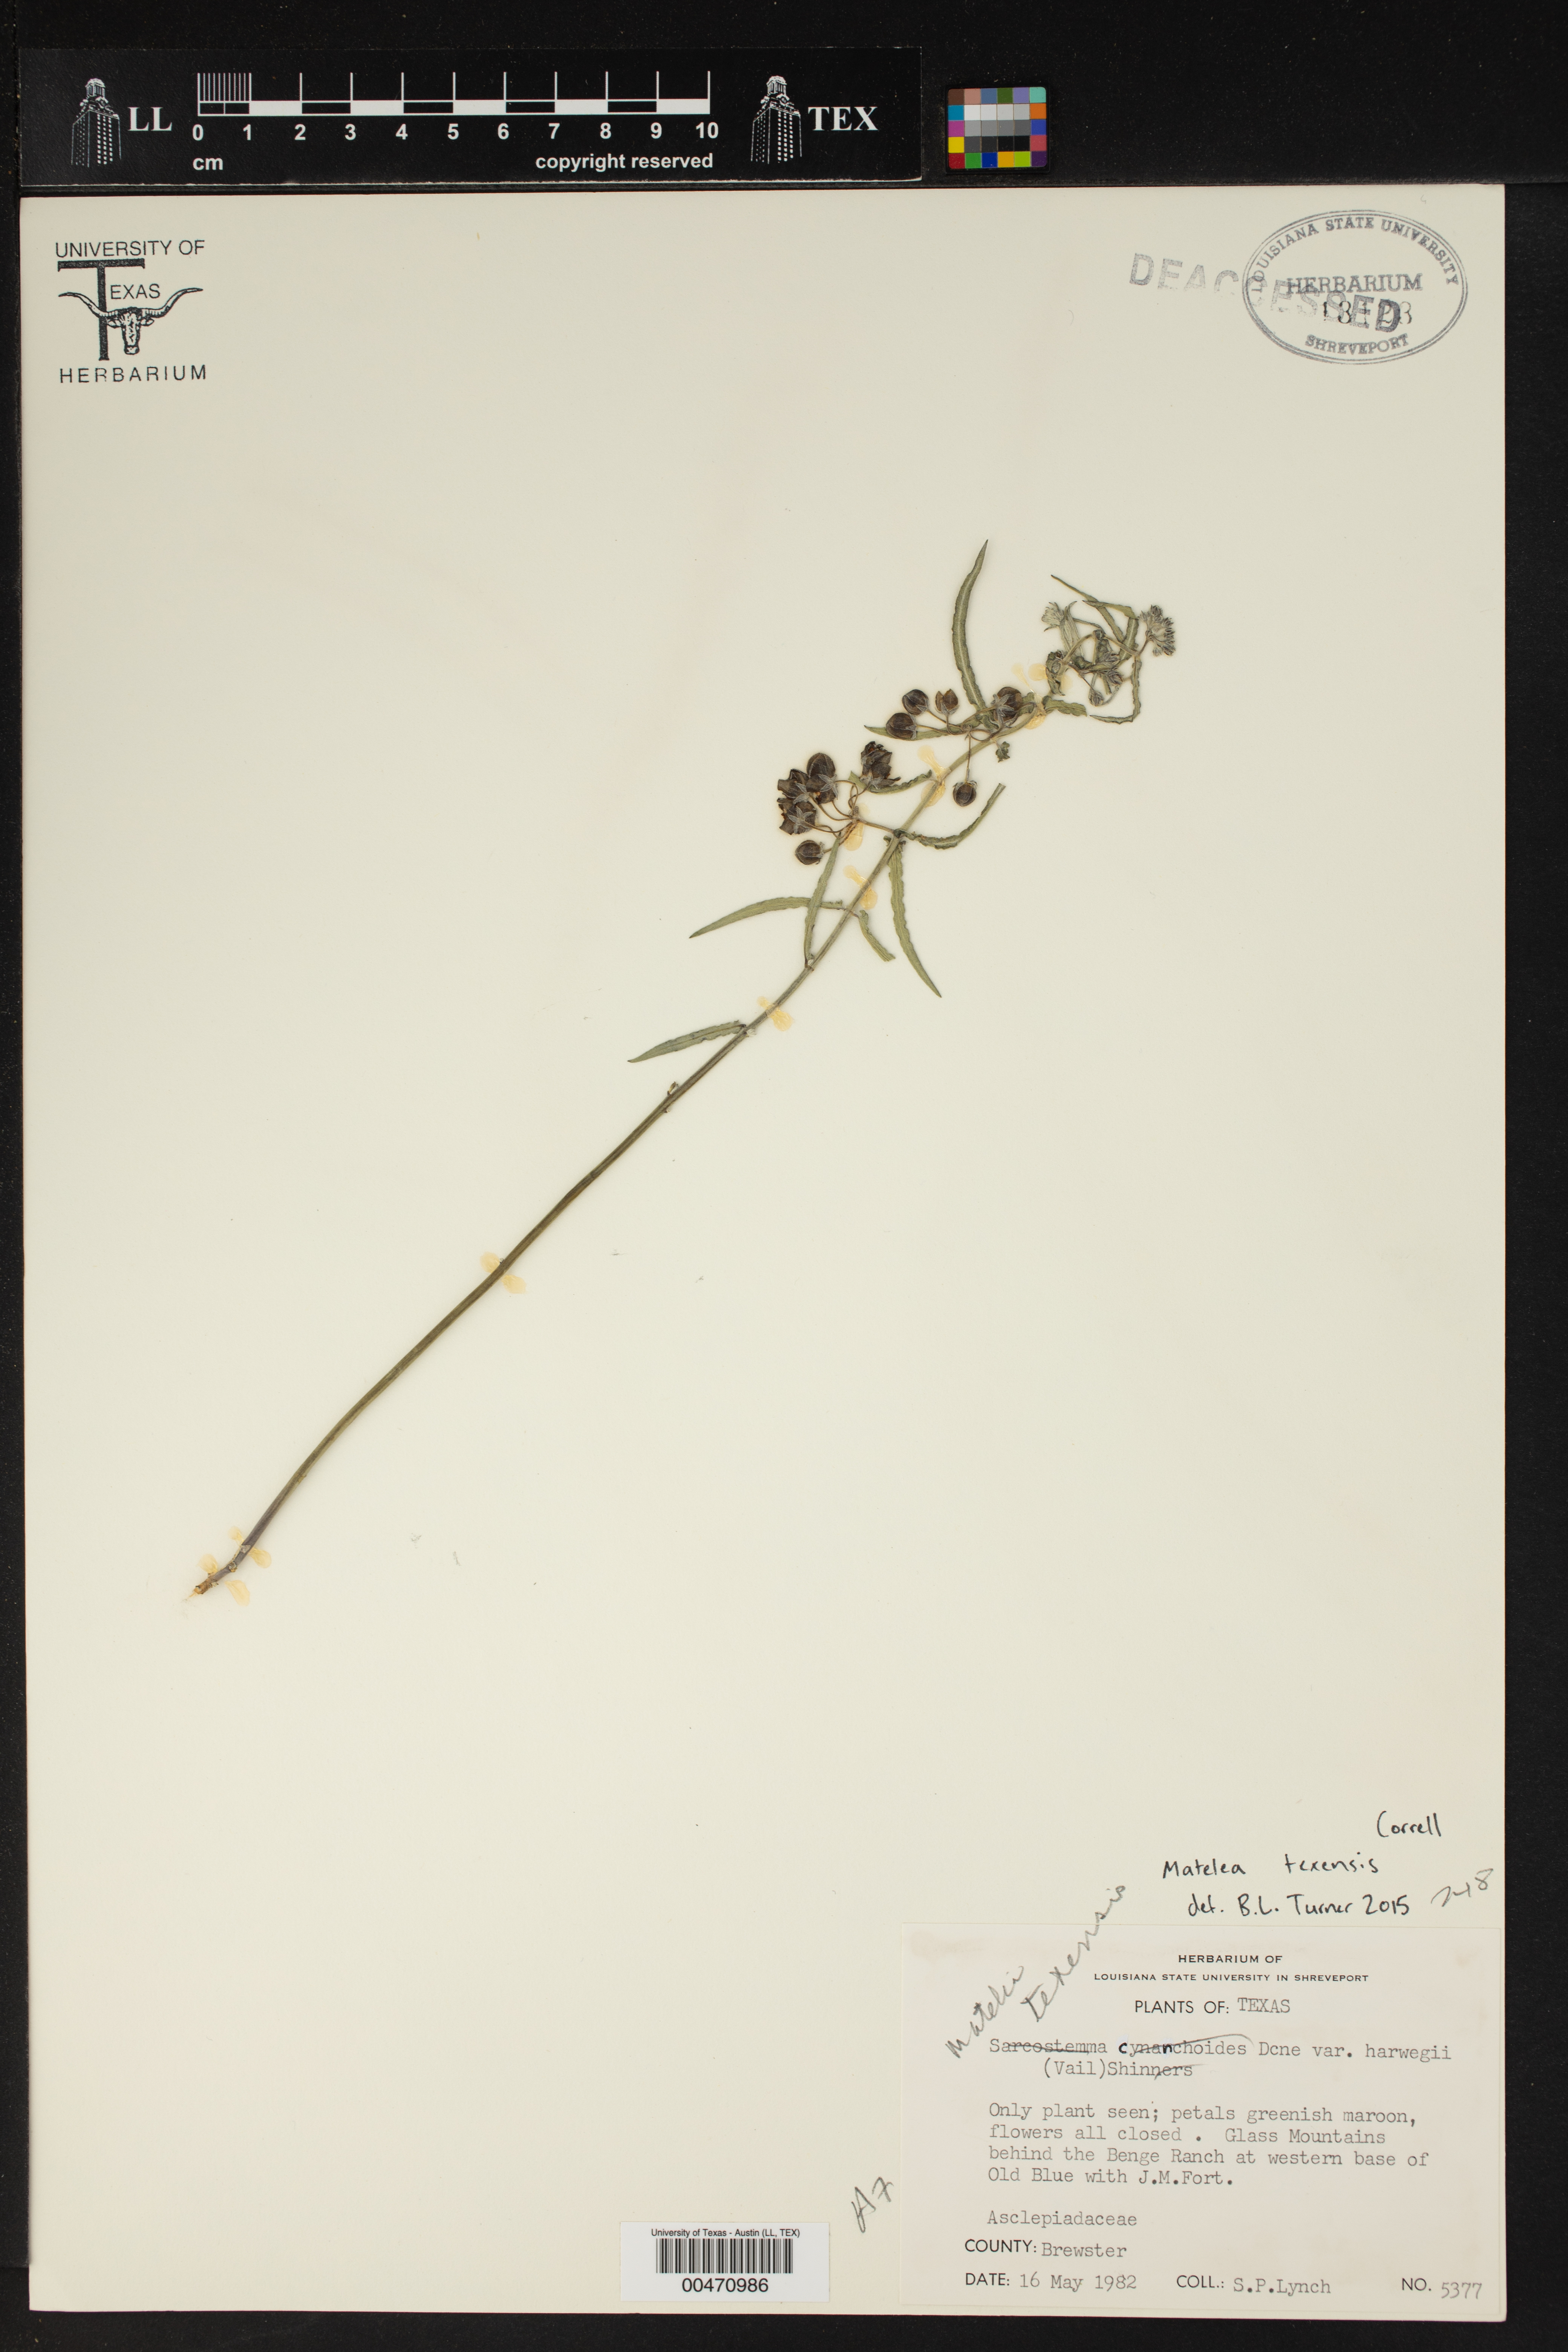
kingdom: Plantae
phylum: Tracheophyta
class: Magnoliopsida
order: Gentianales
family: Apocynaceae
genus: Matelea
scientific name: Matelea texensis
